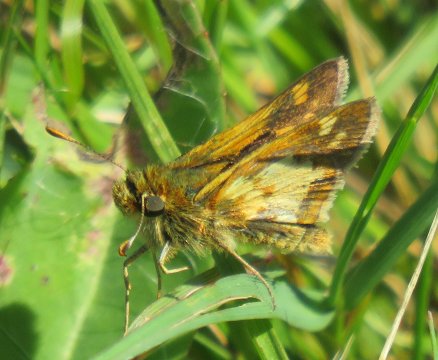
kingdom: Animalia
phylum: Arthropoda
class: Insecta
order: Lepidoptera
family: Hesperiidae
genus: Polites
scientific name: Polites coras
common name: Peck's Skipper
